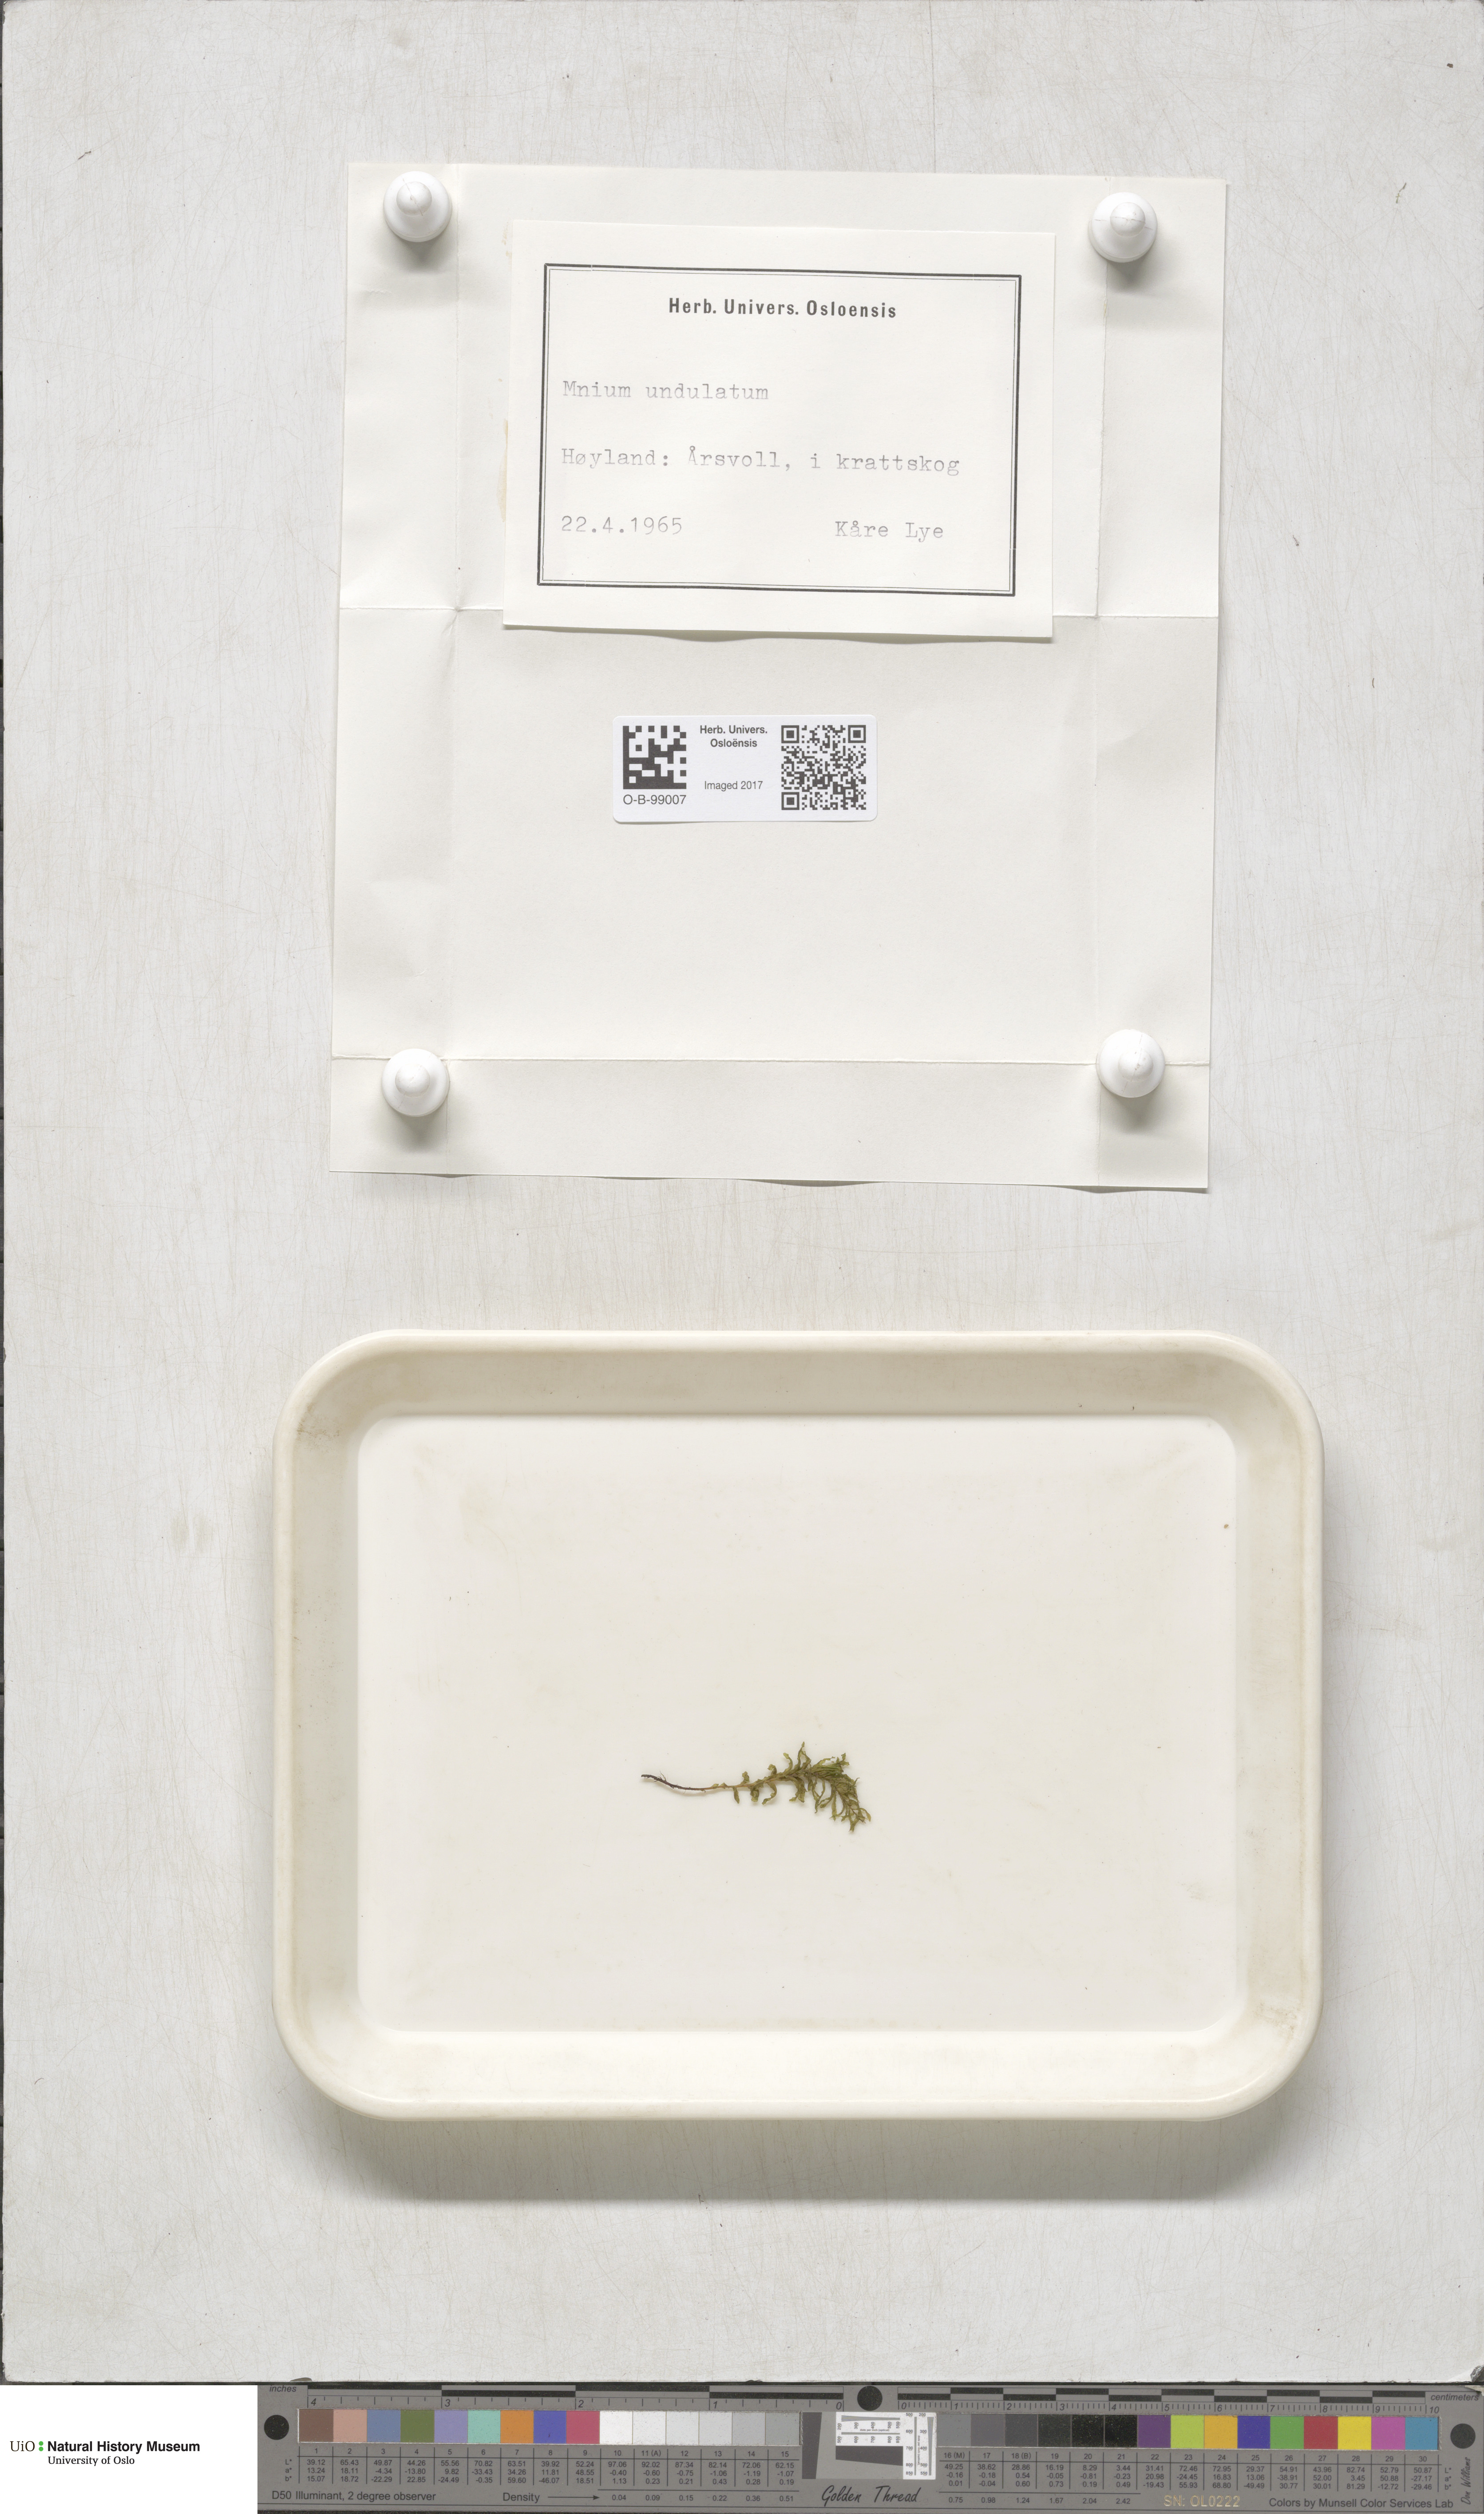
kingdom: Plantae
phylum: Bryophyta
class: Bryopsida
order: Bryales
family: Mniaceae
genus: Plagiomnium
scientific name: Plagiomnium undulatum
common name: Hart's-tongue thyme-moss
